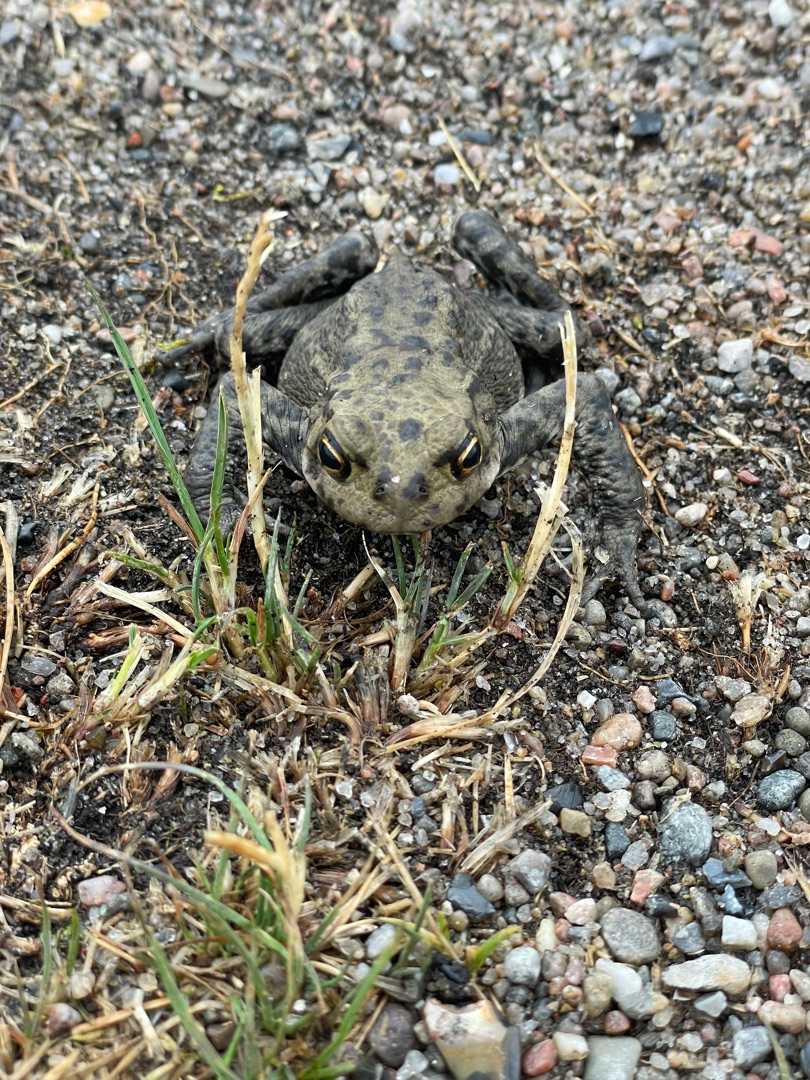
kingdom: Animalia
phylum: Chordata
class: Amphibia
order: Anura
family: Bufonidae
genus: Bufo
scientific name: Bufo bufo
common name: Skrubtudse
